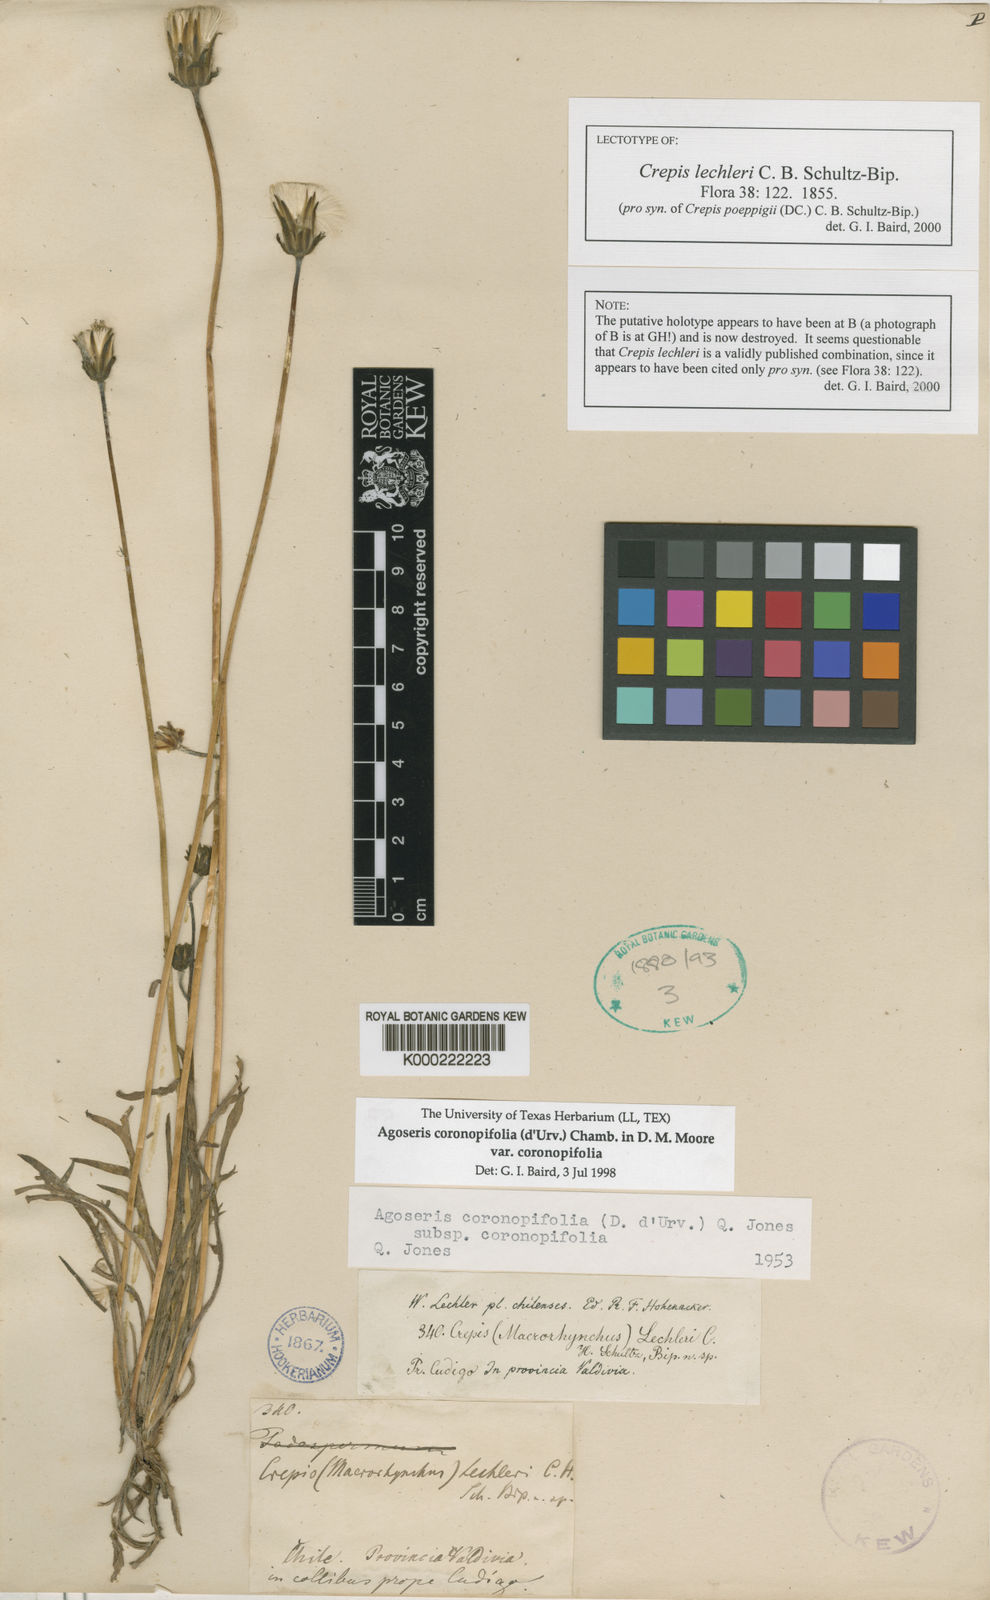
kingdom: Plantae
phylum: Tracheophyta
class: Magnoliopsida
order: Asterales
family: Asteraceae
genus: Agoseris
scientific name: Agoseris
